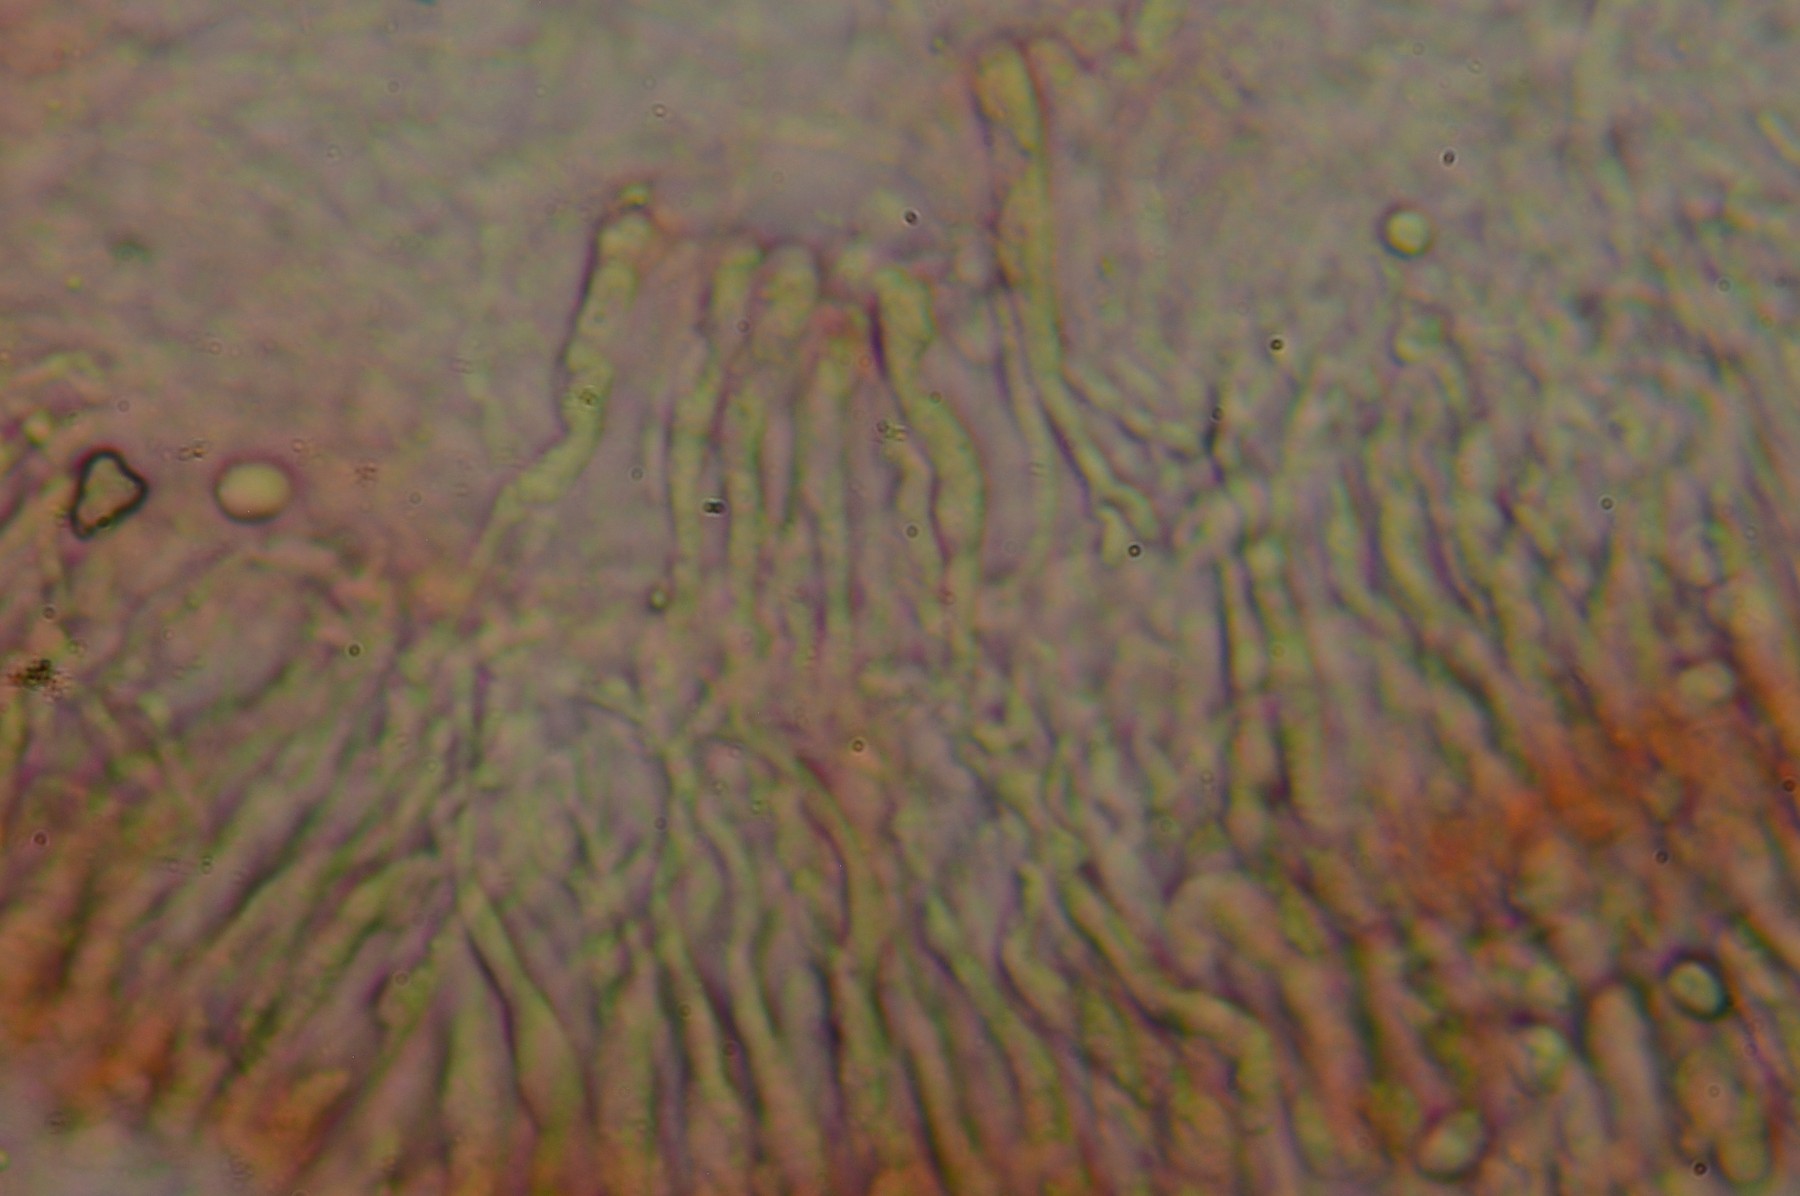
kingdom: Fungi
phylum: Basidiomycota
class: Agaricomycetes
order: Agaricales
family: Clavariaceae
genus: Clavaria
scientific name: Clavaria tenuipes
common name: isabellafarvet køllesvamp
